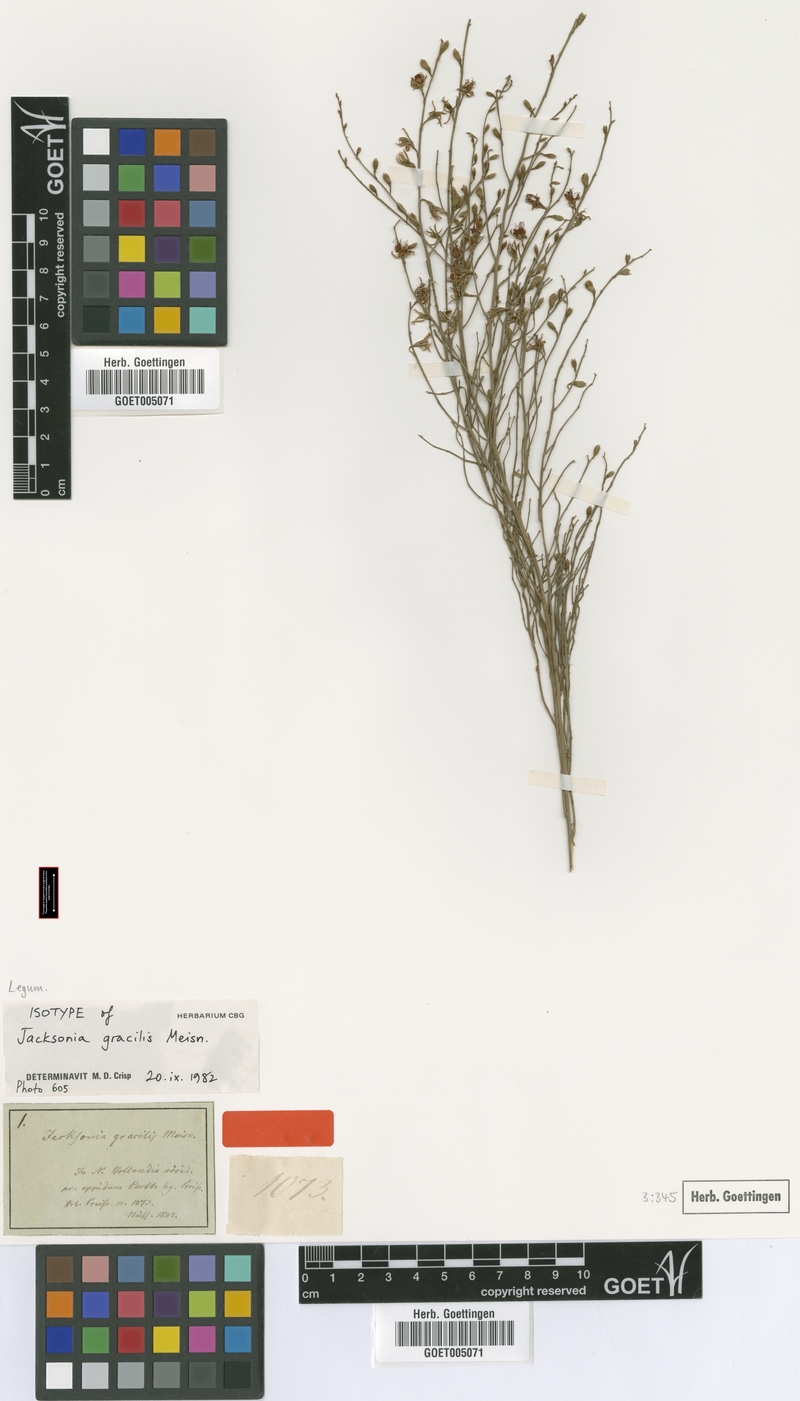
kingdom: Plantae
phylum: Tracheophyta
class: Magnoliopsida
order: Fabales
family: Fabaceae
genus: Jacksonia
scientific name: Jacksonia sericea
